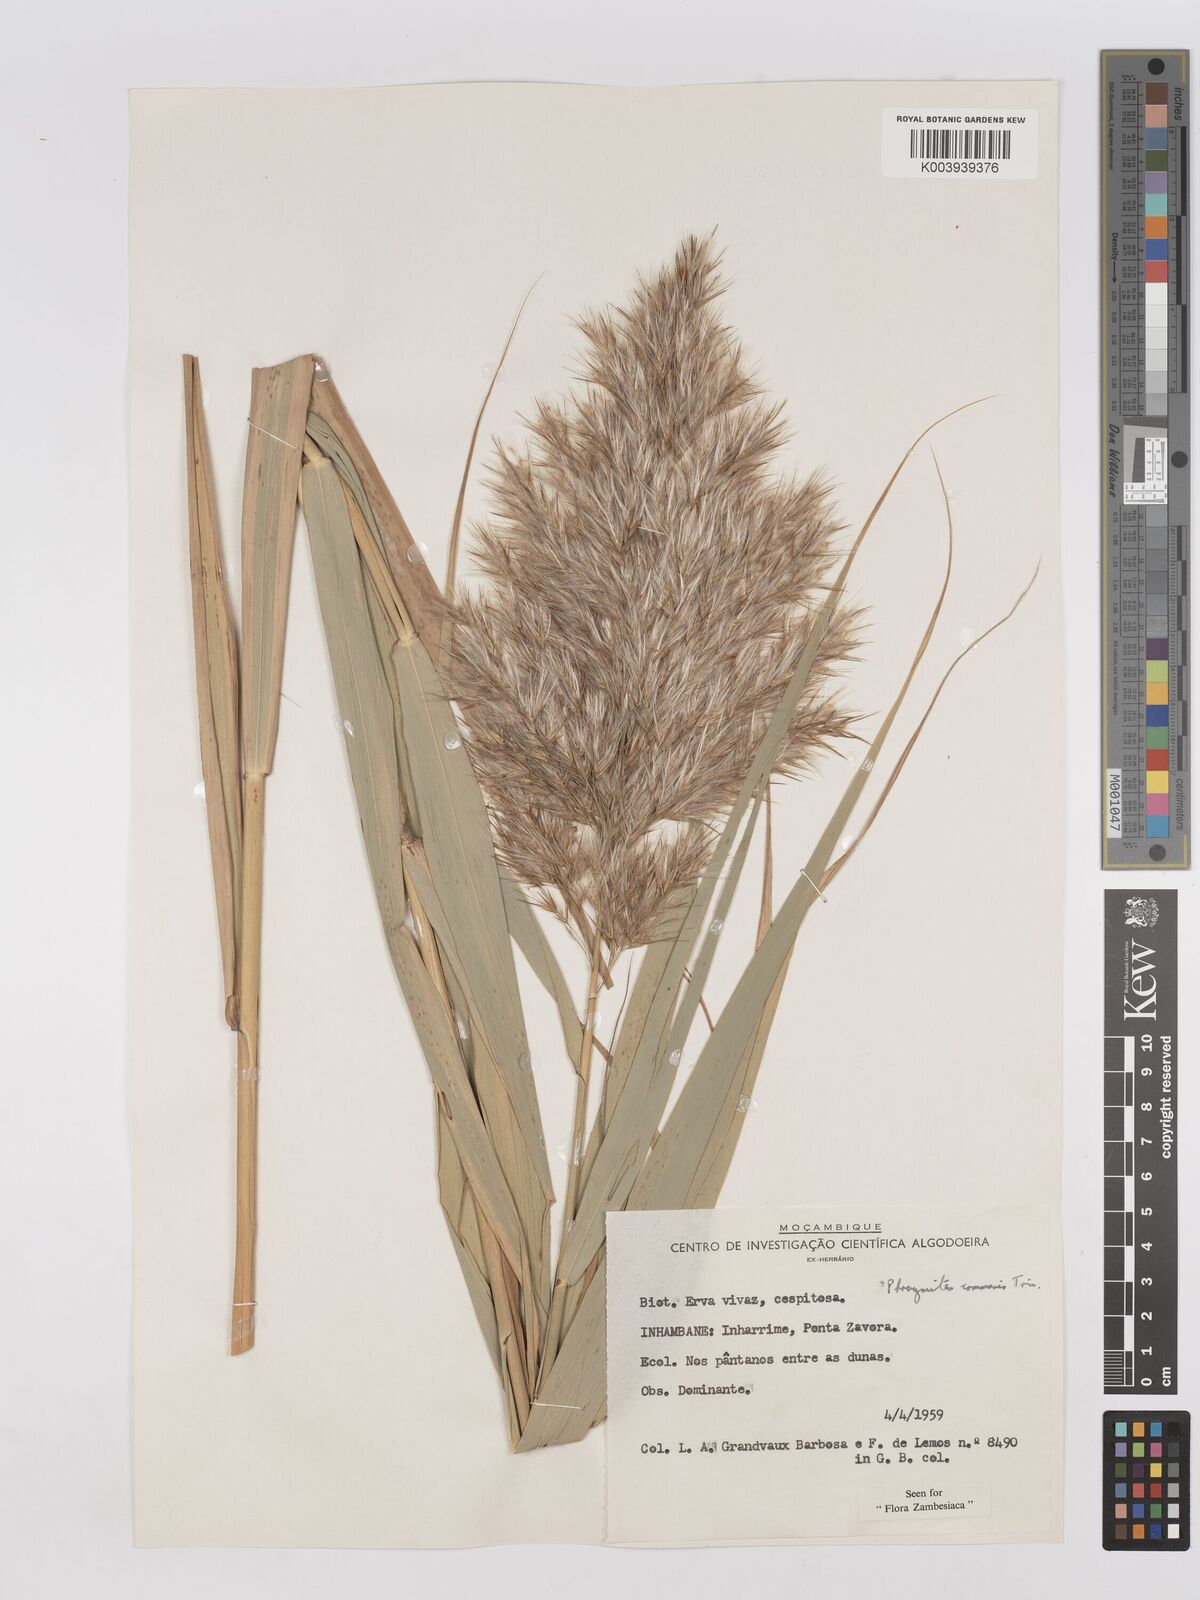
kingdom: Plantae
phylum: Tracheophyta
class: Liliopsida
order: Poales
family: Poaceae
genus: Phragmites
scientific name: Phragmites australis
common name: Common reed
